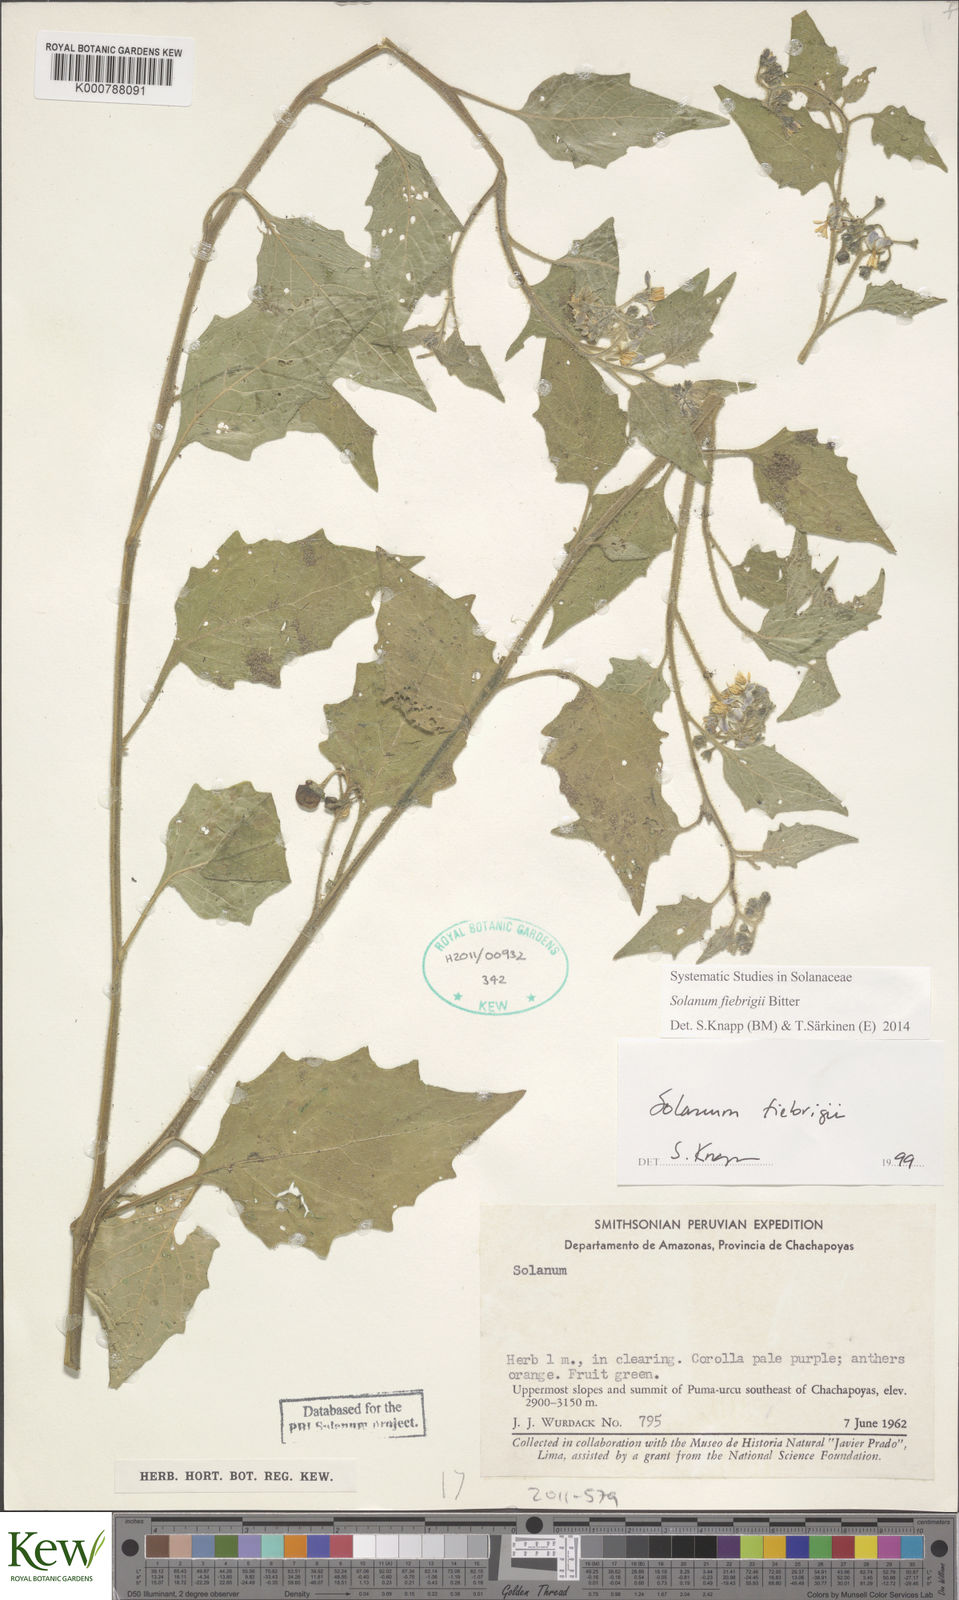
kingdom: Plantae
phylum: Tracheophyta
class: Magnoliopsida
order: Solanales
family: Solanaceae
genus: Solanum
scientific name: Solanum juninense
